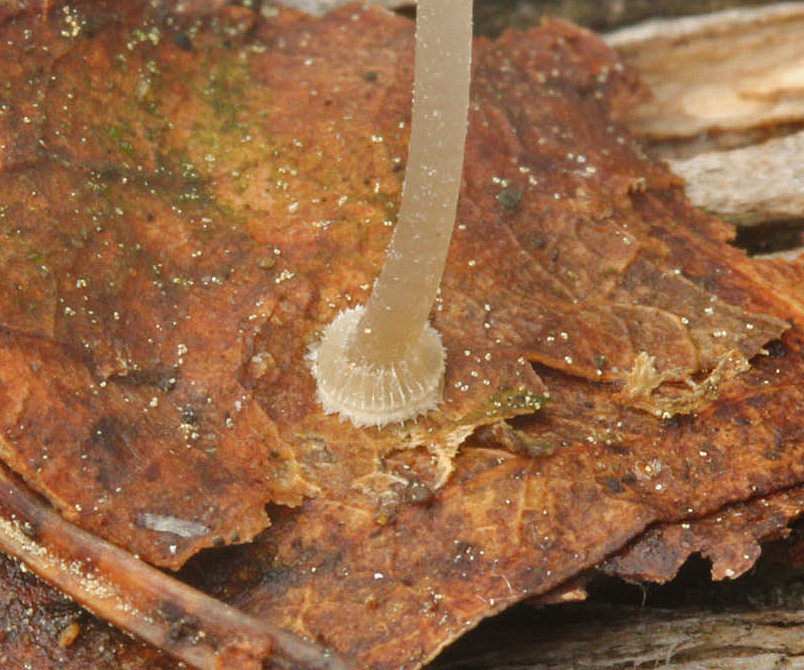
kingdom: Fungi
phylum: Basidiomycota
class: Agaricomycetes
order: Agaricales
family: Mycenaceae
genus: Mycena
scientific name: Mycena stylobates
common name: fureskivet huesvamp
